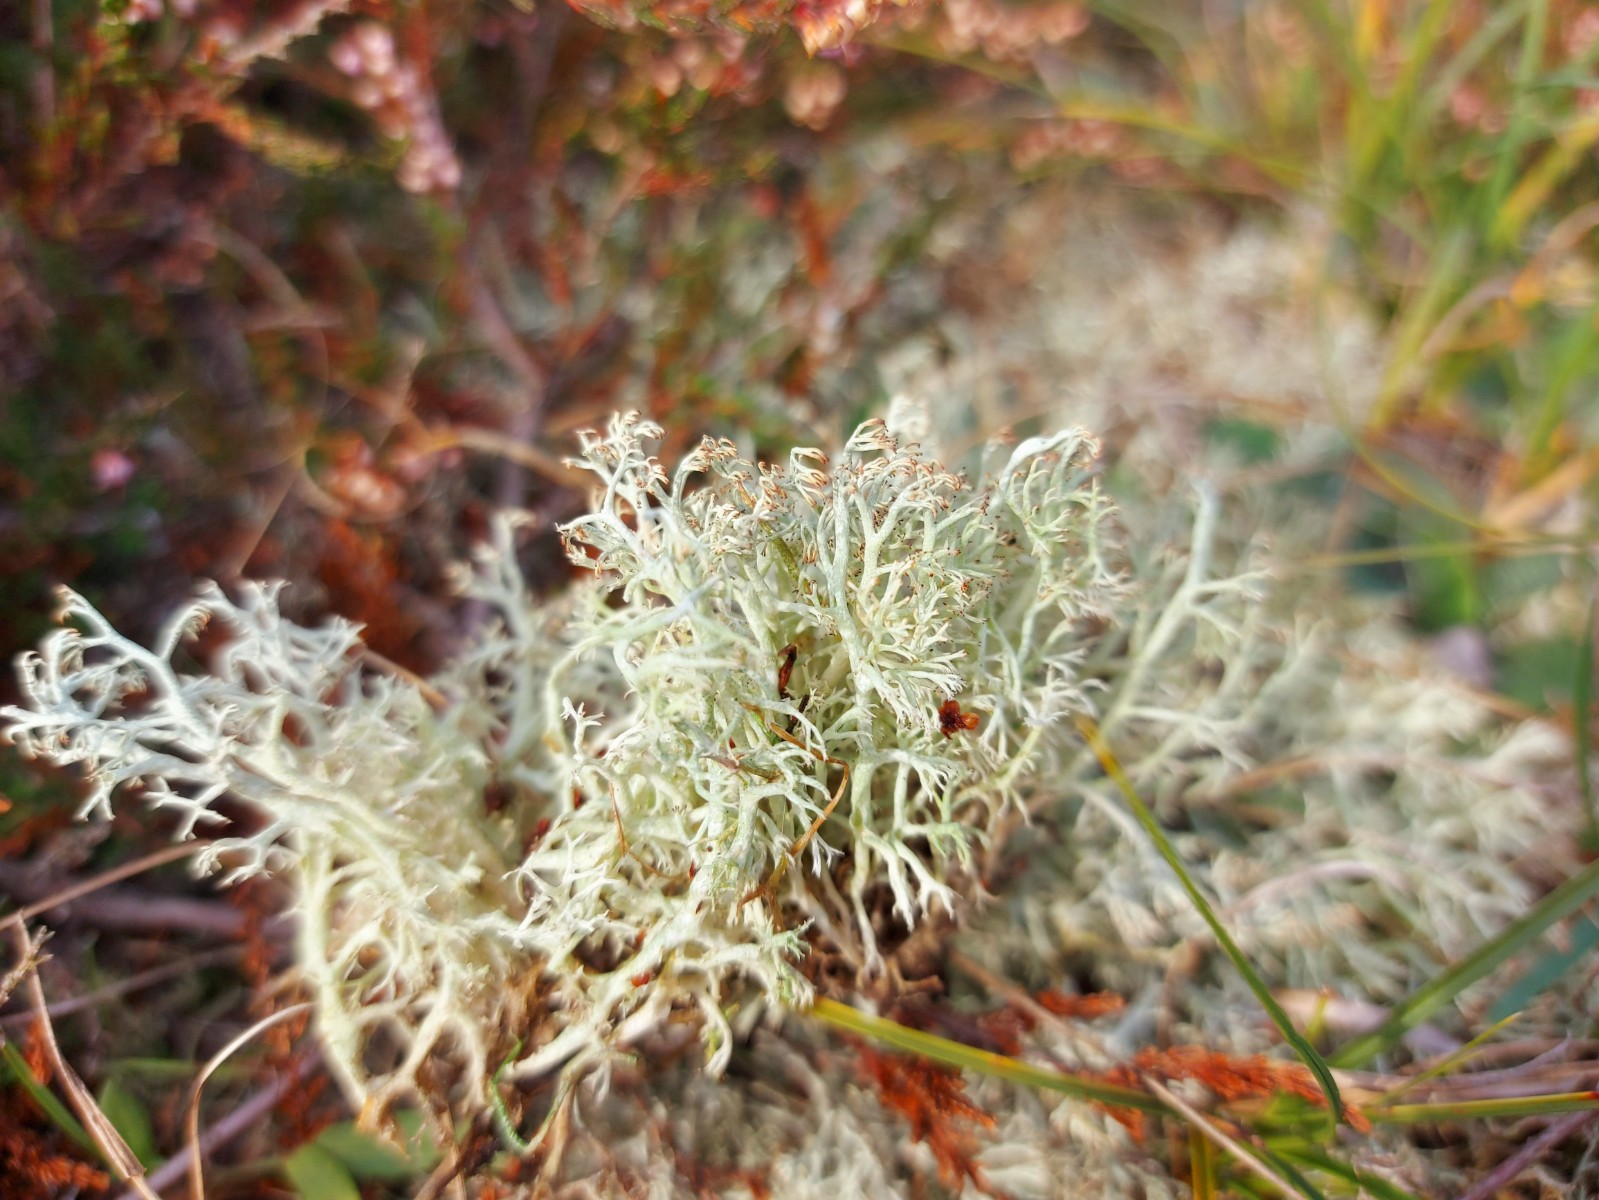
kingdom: Fungi
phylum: Ascomycota
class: Lecanoromycetes
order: Lecanorales
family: Cladoniaceae
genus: Cladonia
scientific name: Cladonia ciliata
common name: spinkel rensdyrlav
